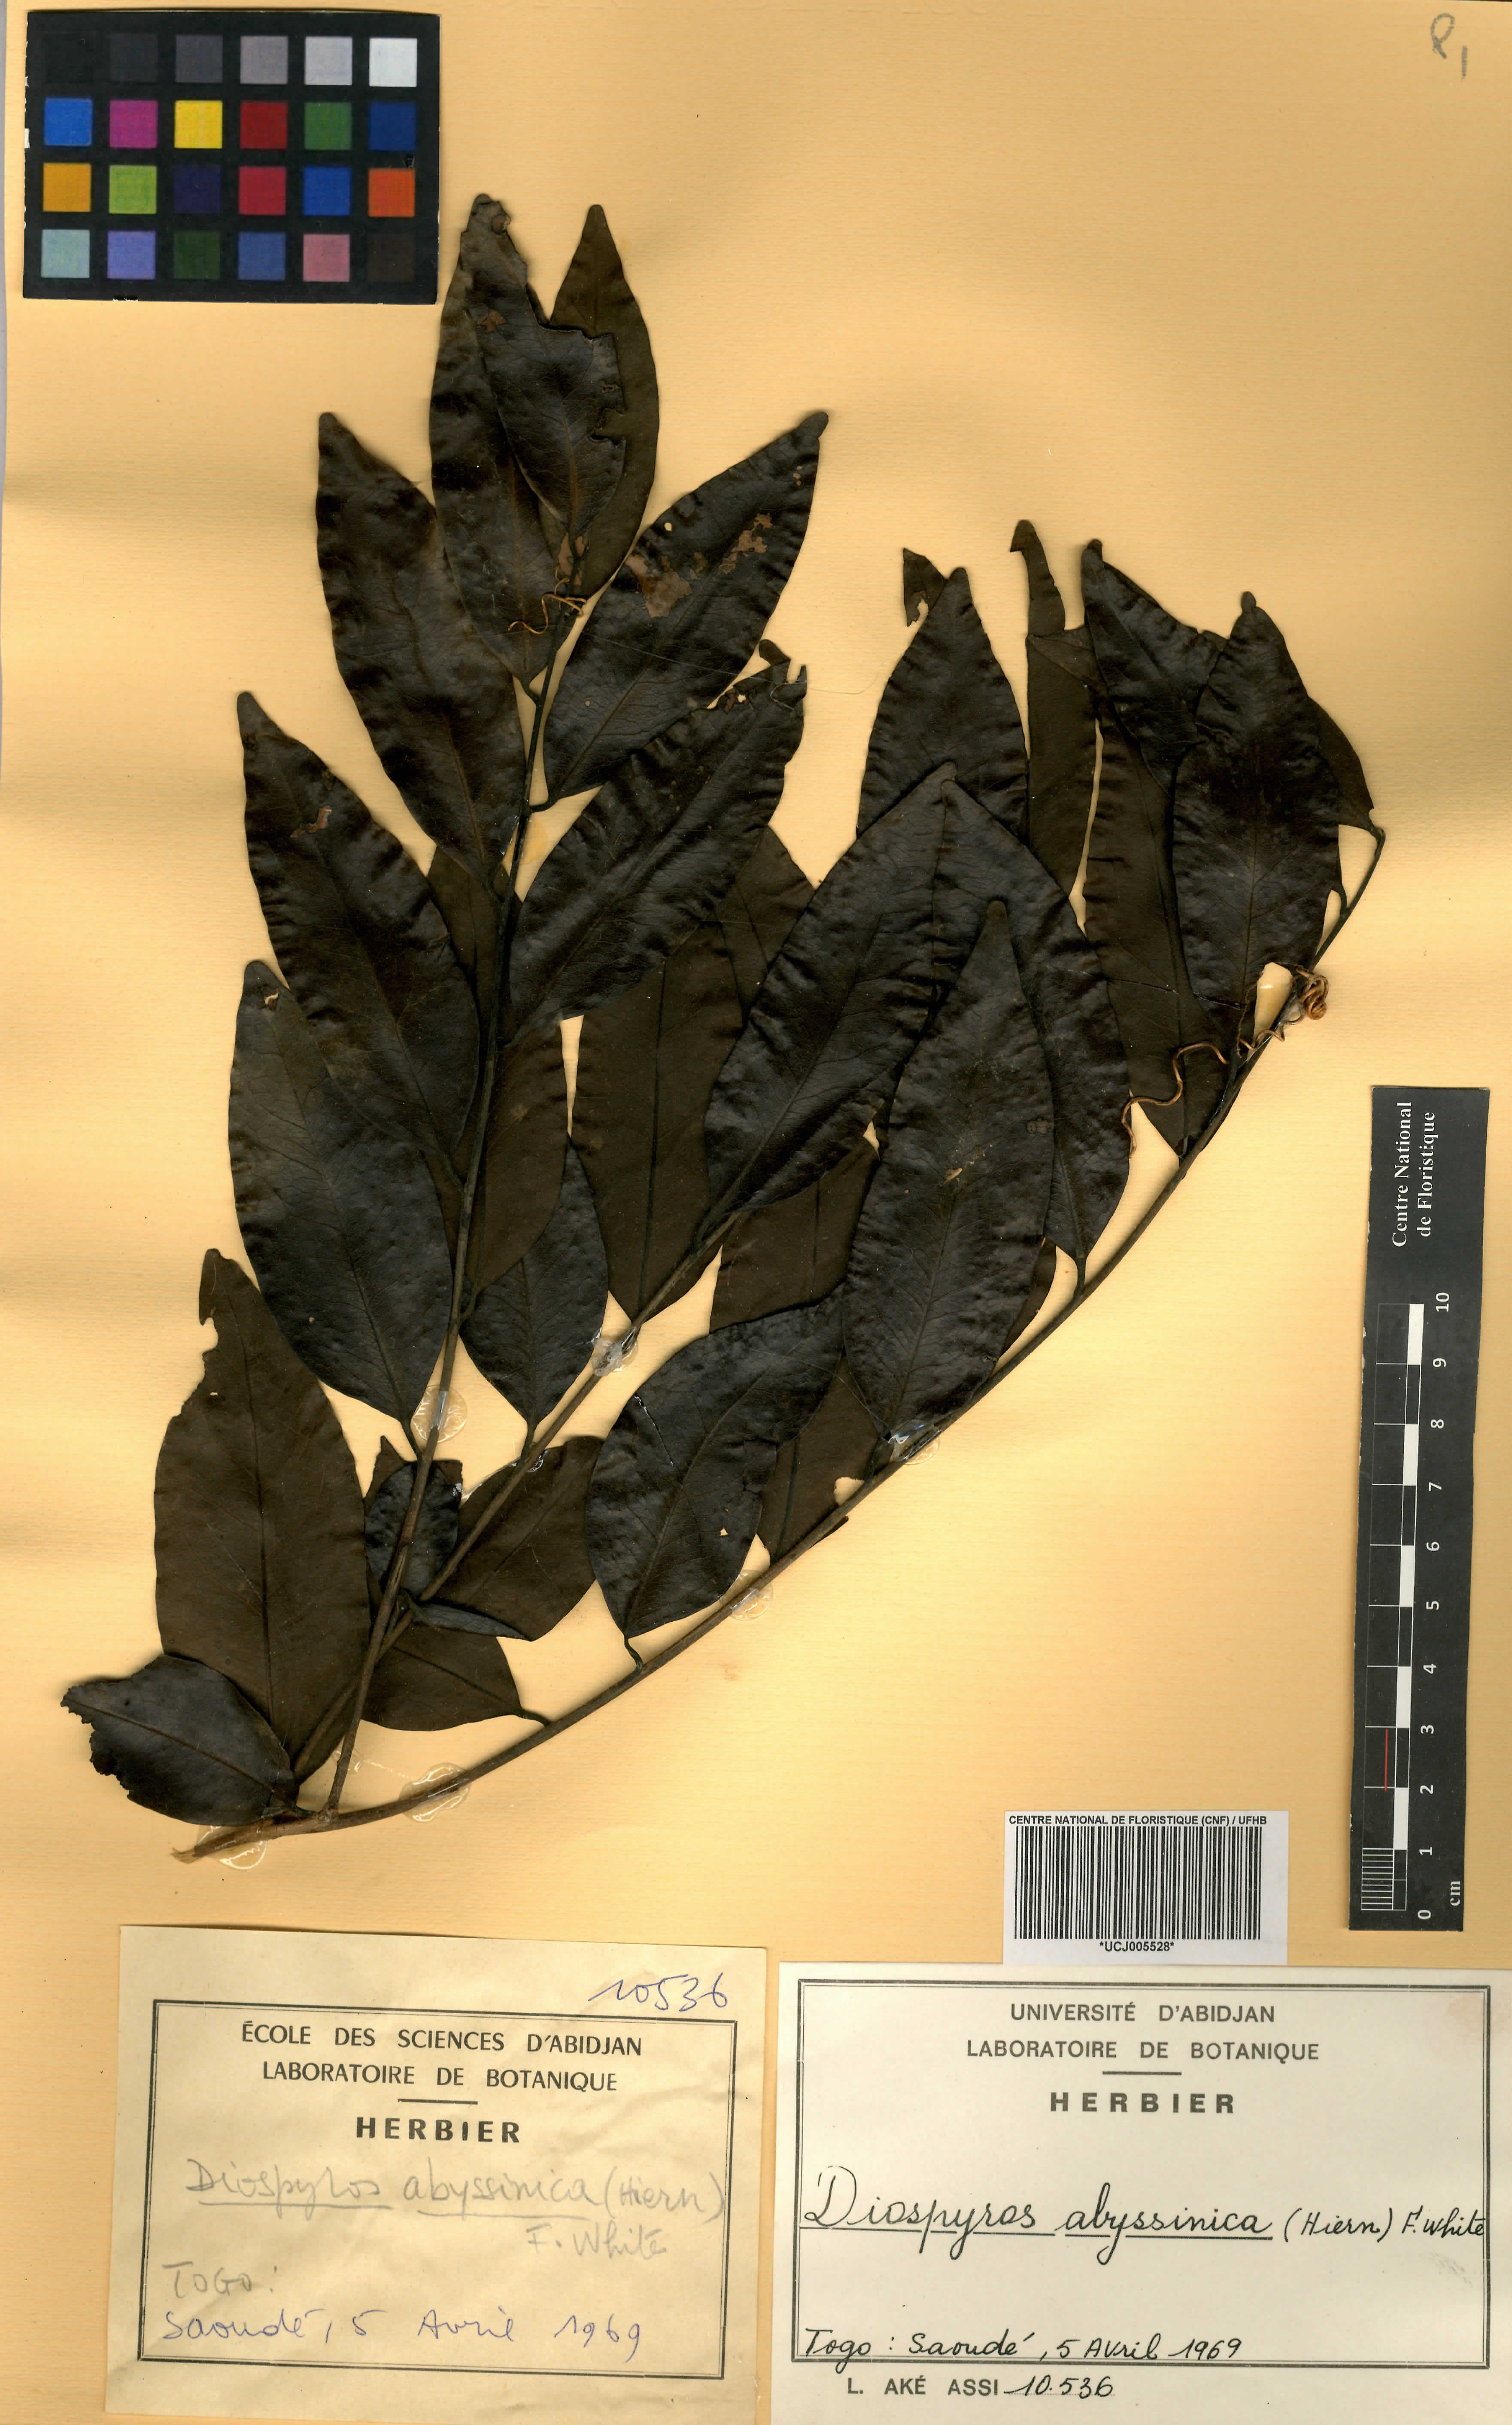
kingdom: Plantae
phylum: Tracheophyta
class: Magnoliopsida
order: Ericales
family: Ebenaceae
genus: Diospyros
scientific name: Diospyros abyssinica
